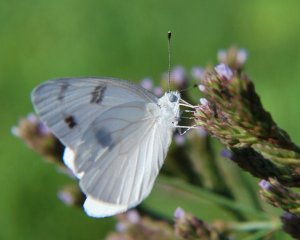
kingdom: Animalia
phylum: Arthropoda
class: Insecta
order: Lepidoptera
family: Pieridae
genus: Pontia
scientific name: Pontia protodice
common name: Checkered White
